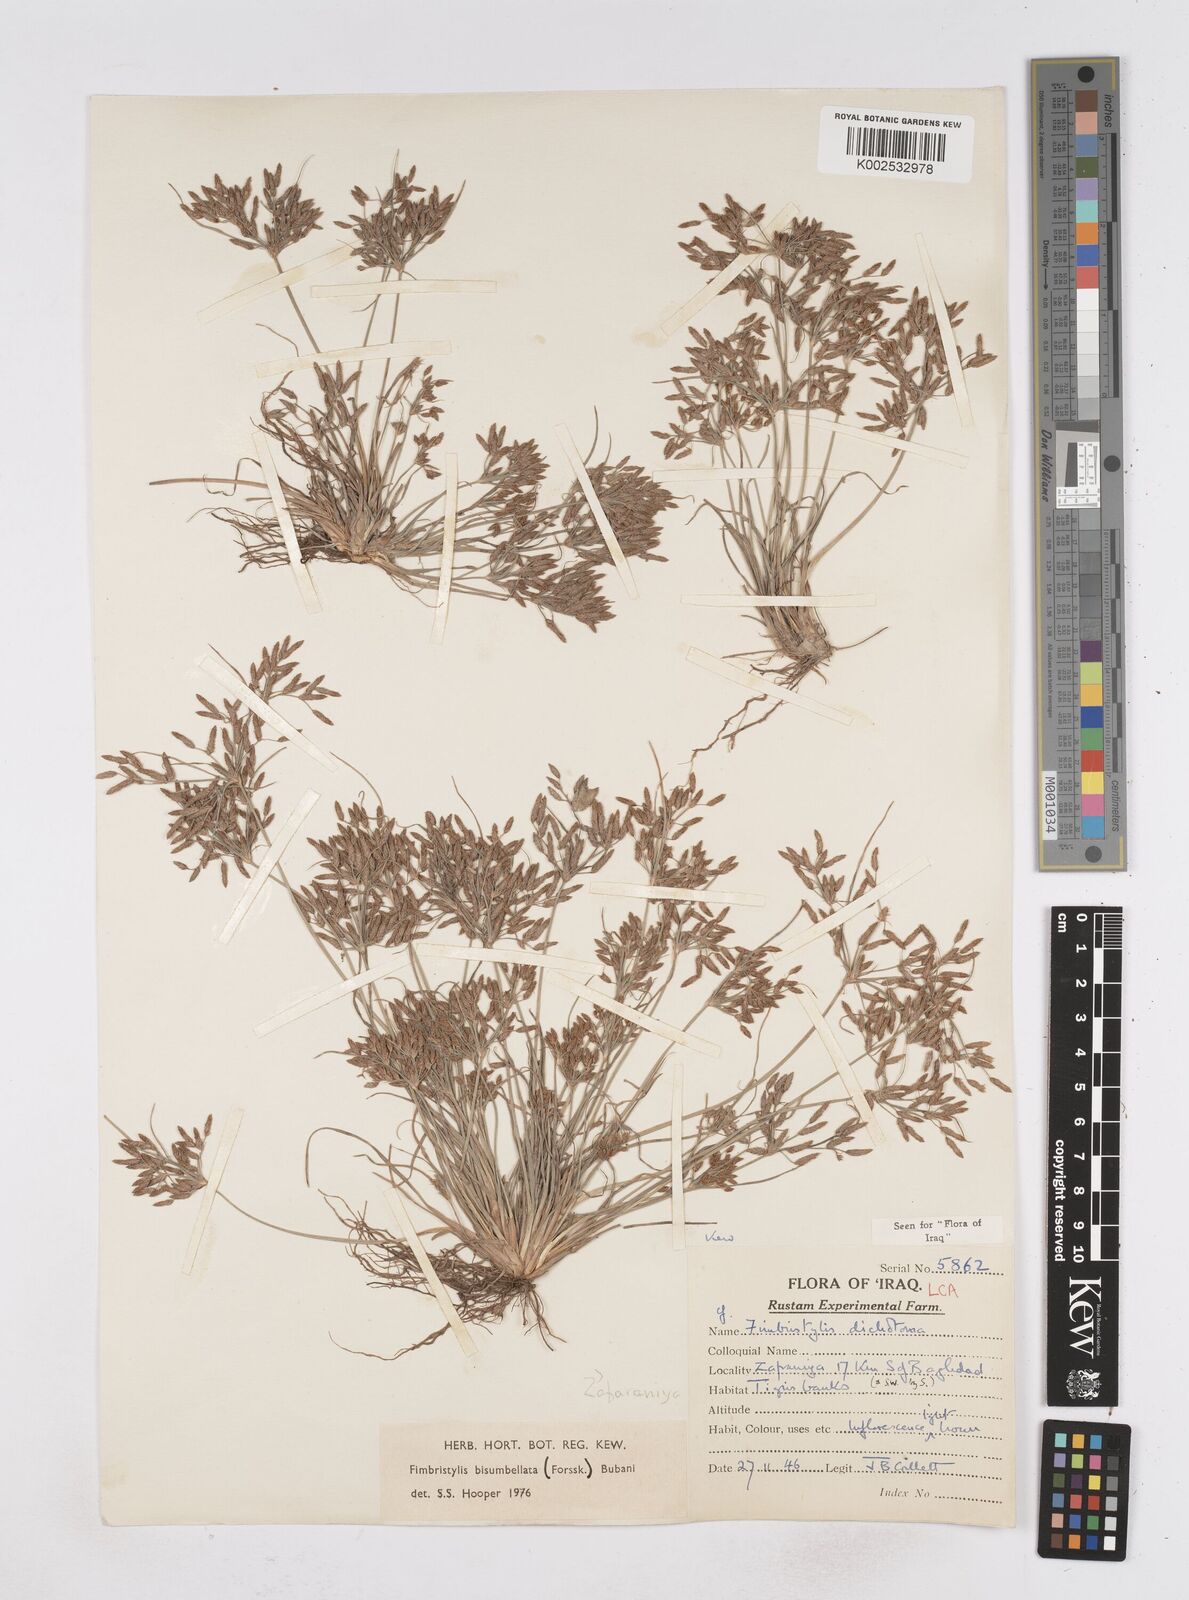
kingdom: Plantae
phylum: Tracheophyta
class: Liliopsida
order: Poales
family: Cyperaceae
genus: Fimbristylis
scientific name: Fimbristylis bisumbellata
